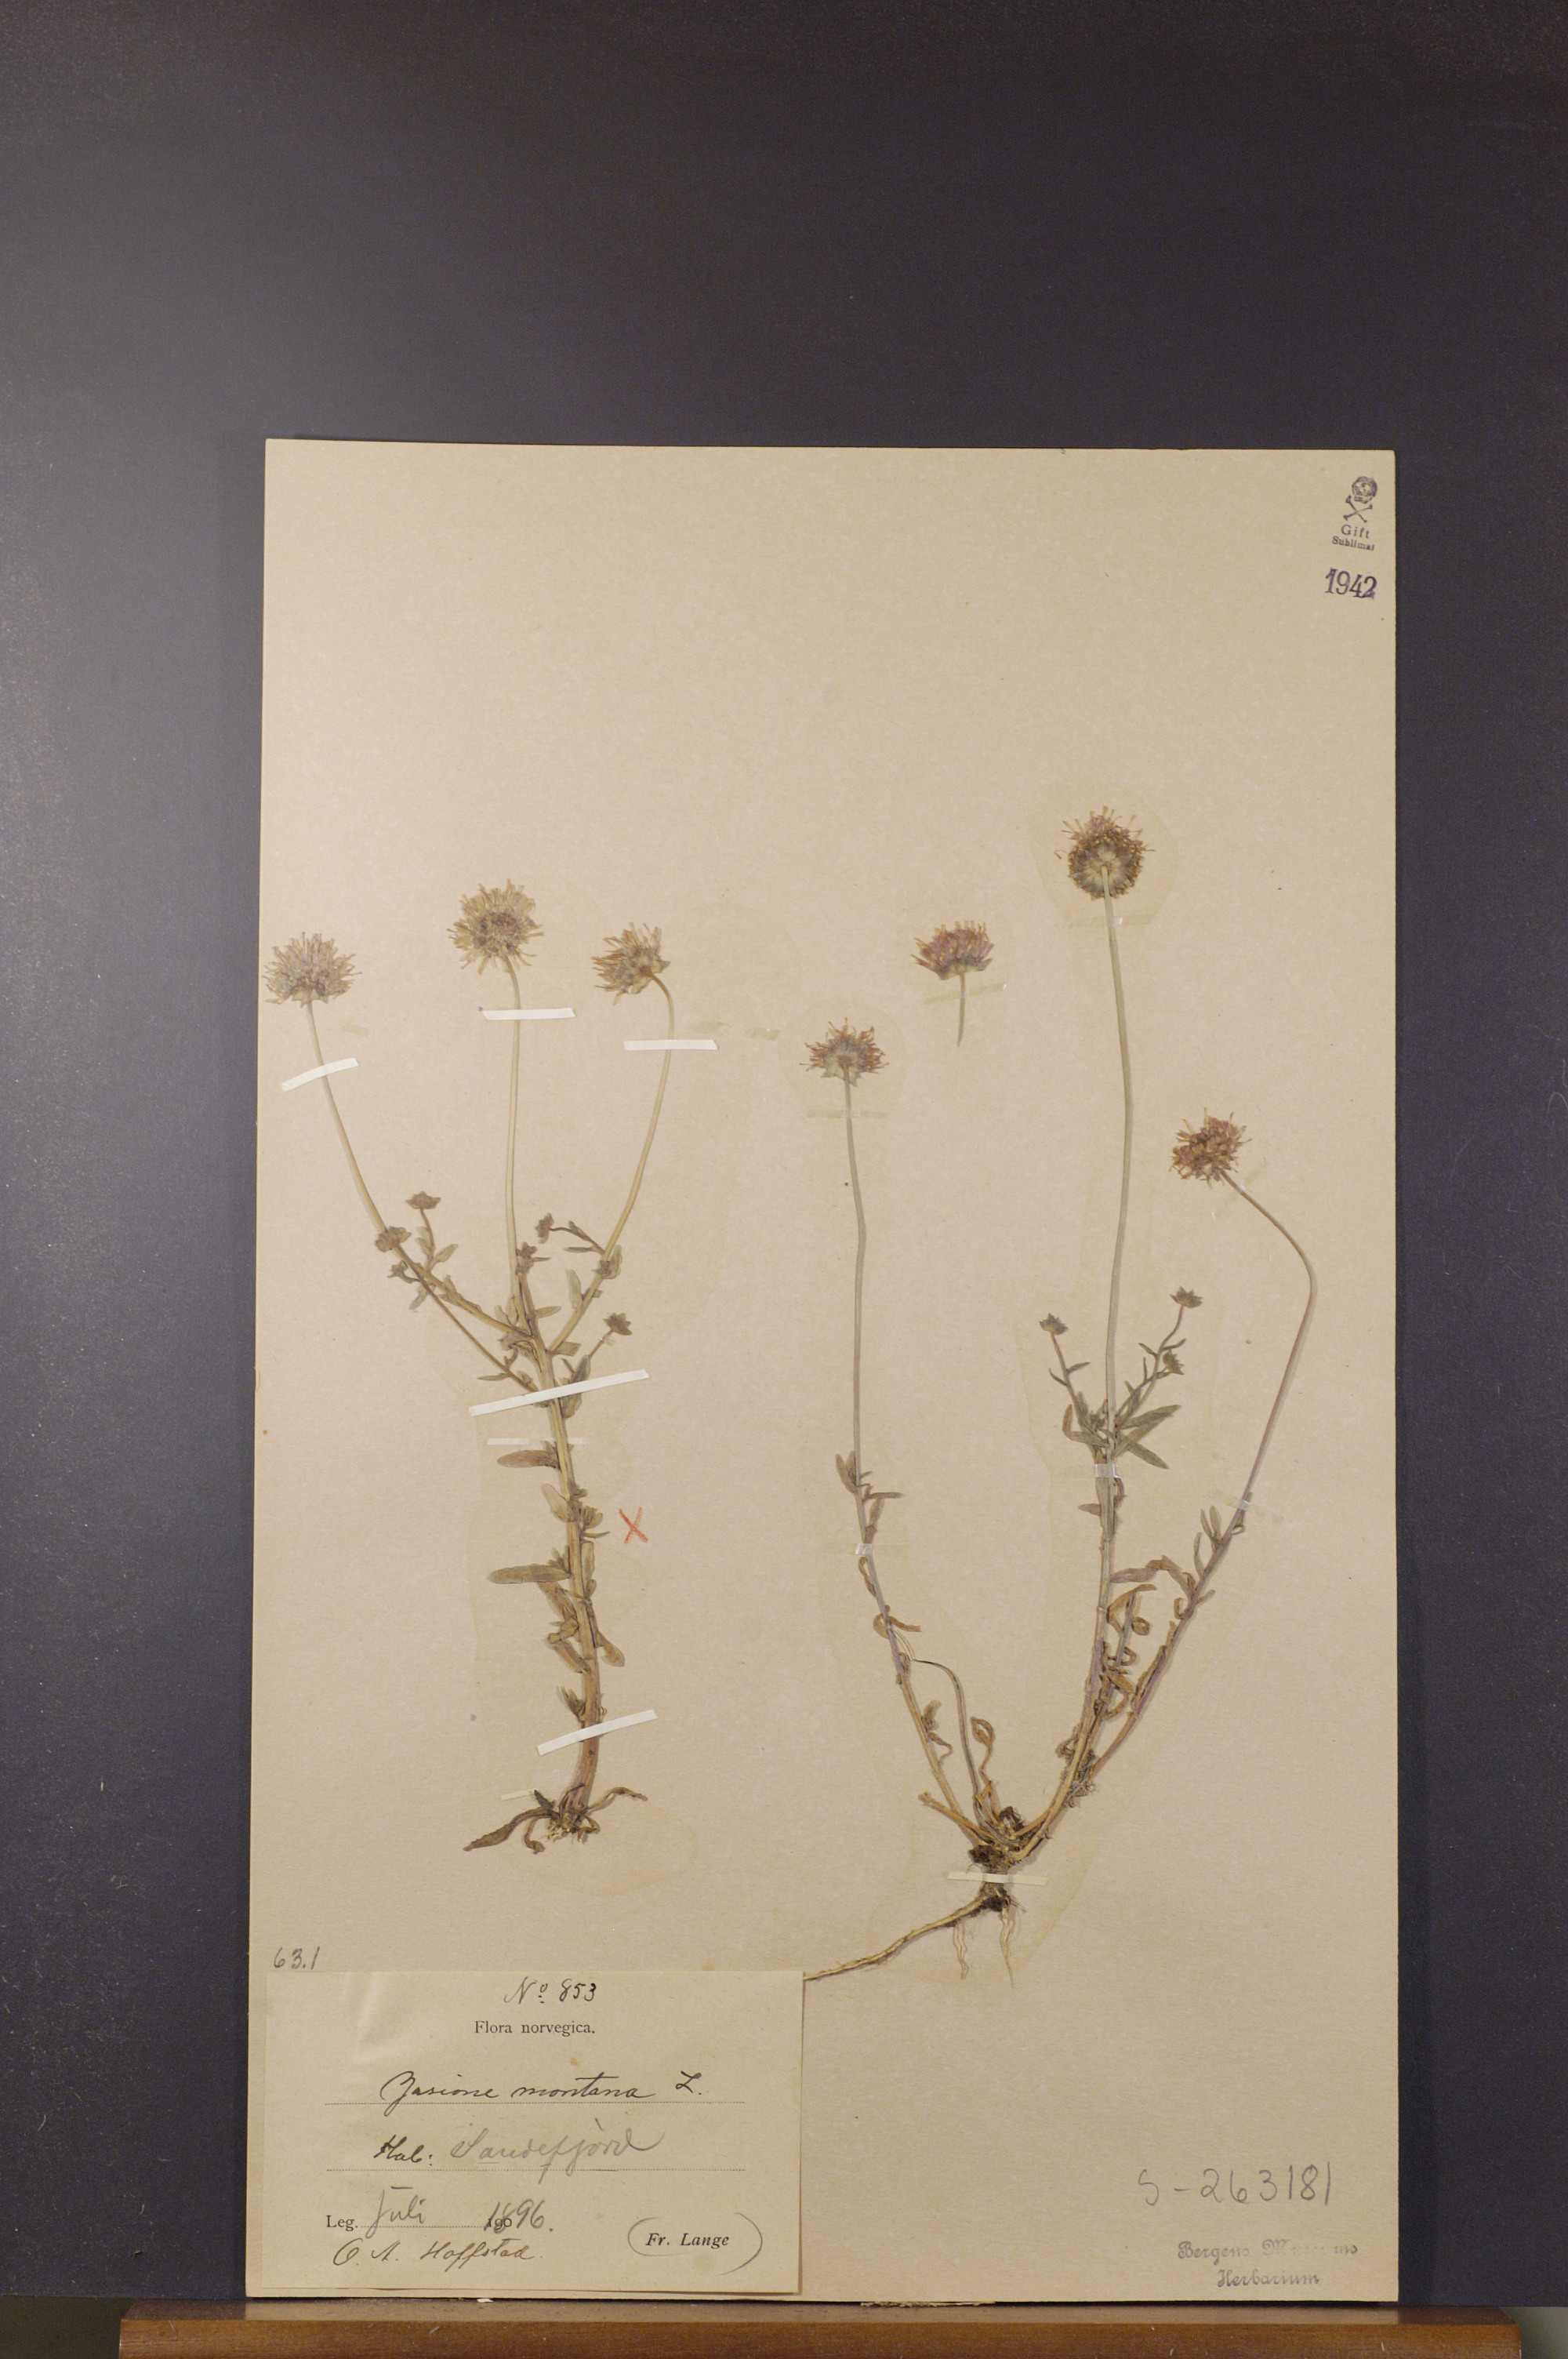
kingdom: Plantae
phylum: Tracheophyta
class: Magnoliopsida
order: Asterales
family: Campanulaceae
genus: Jasione
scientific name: Jasione montana
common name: Sheep's-bit
